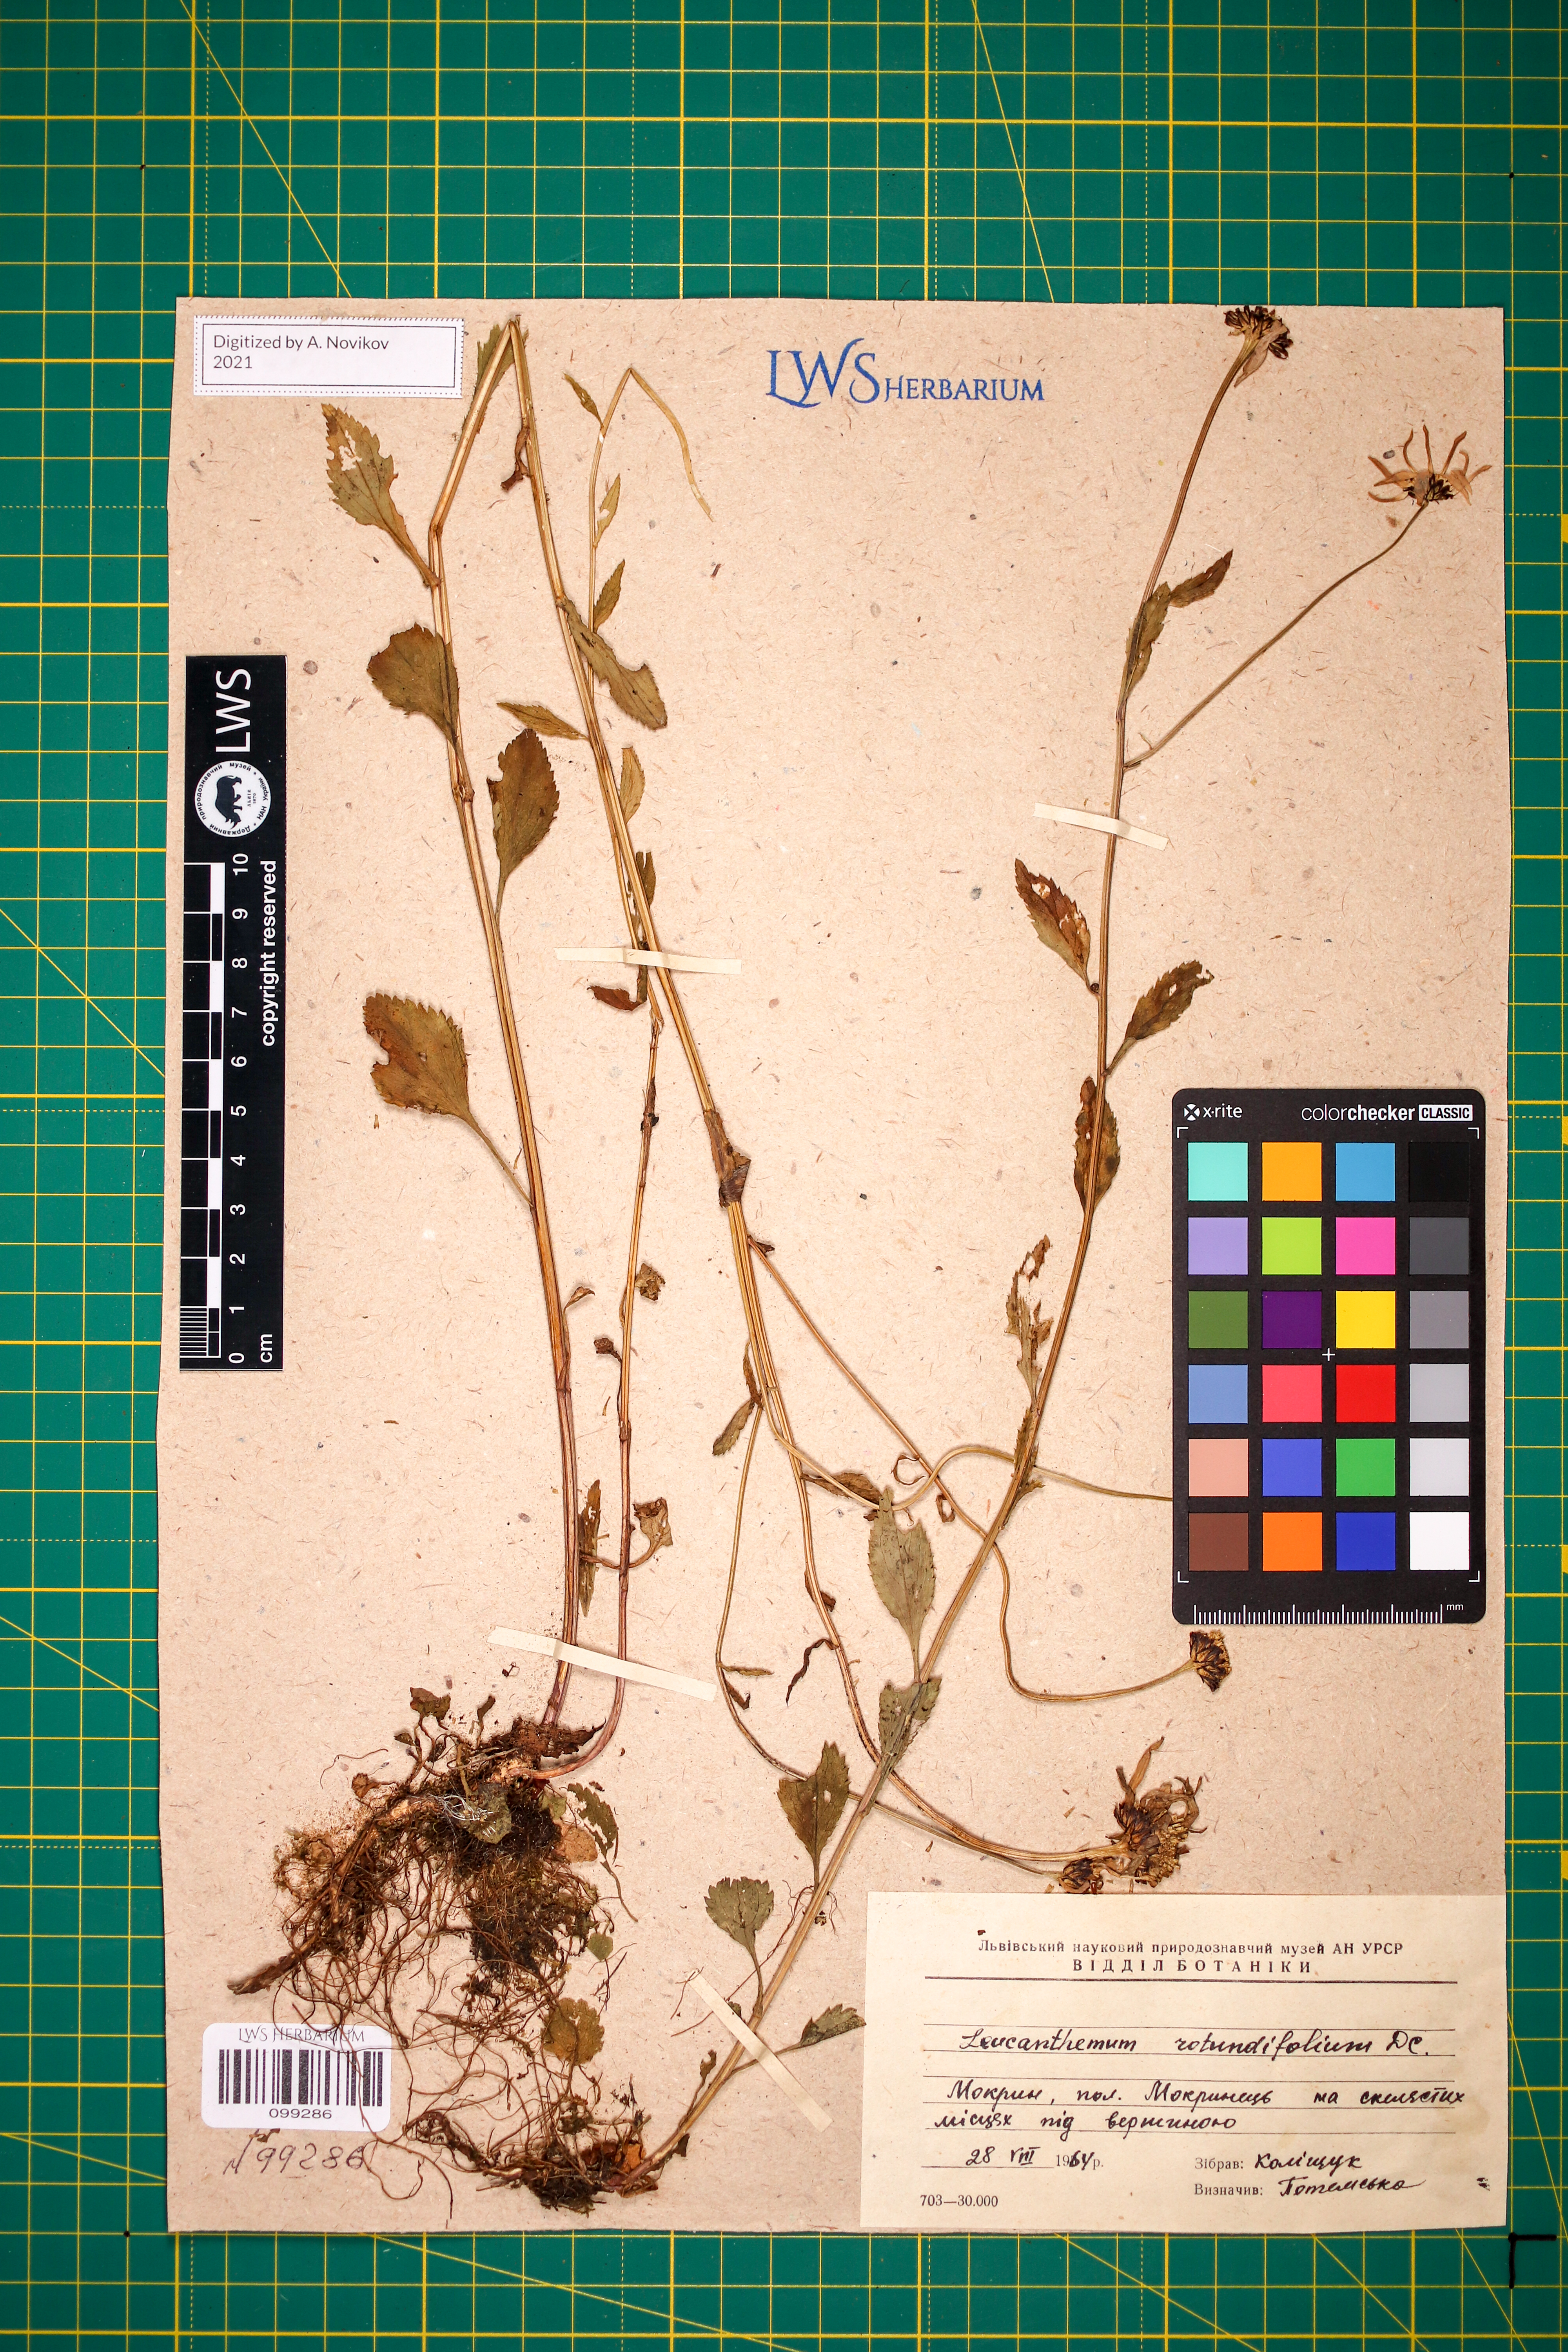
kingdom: Plantae
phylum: Tracheophyta
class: Magnoliopsida
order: Asterales
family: Asteraceae
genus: Leucanthemum
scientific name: Leucanthemum rotundifolium
